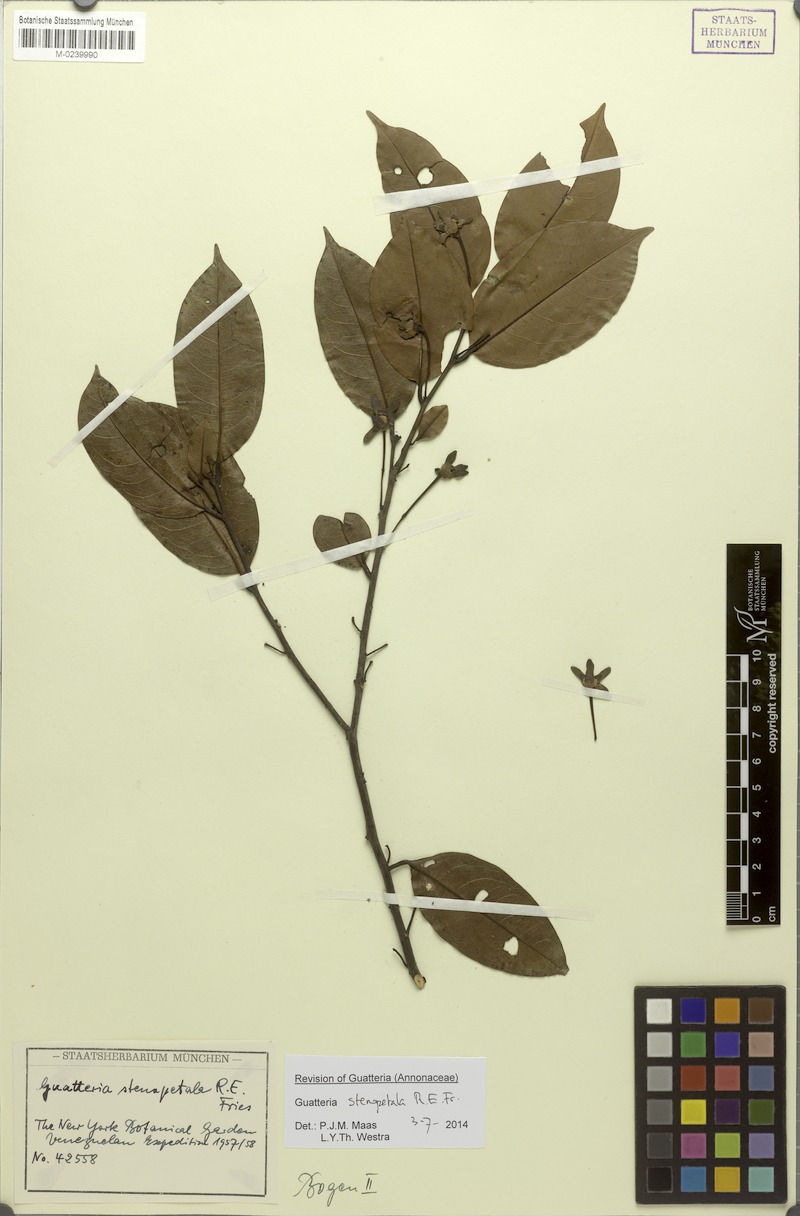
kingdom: Plantae
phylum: Tracheophyta
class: Magnoliopsida
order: Magnoliales
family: Annonaceae
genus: Guatteria
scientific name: Guatteria stenopetala
